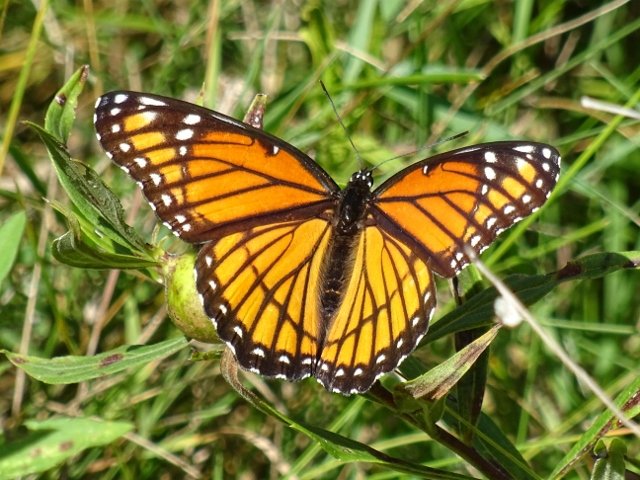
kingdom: Animalia
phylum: Arthropoda
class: Insecta
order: Lepidoptera
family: Nymphalidae
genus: Limenitis
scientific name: Limenitis archippus
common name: Viceroy
